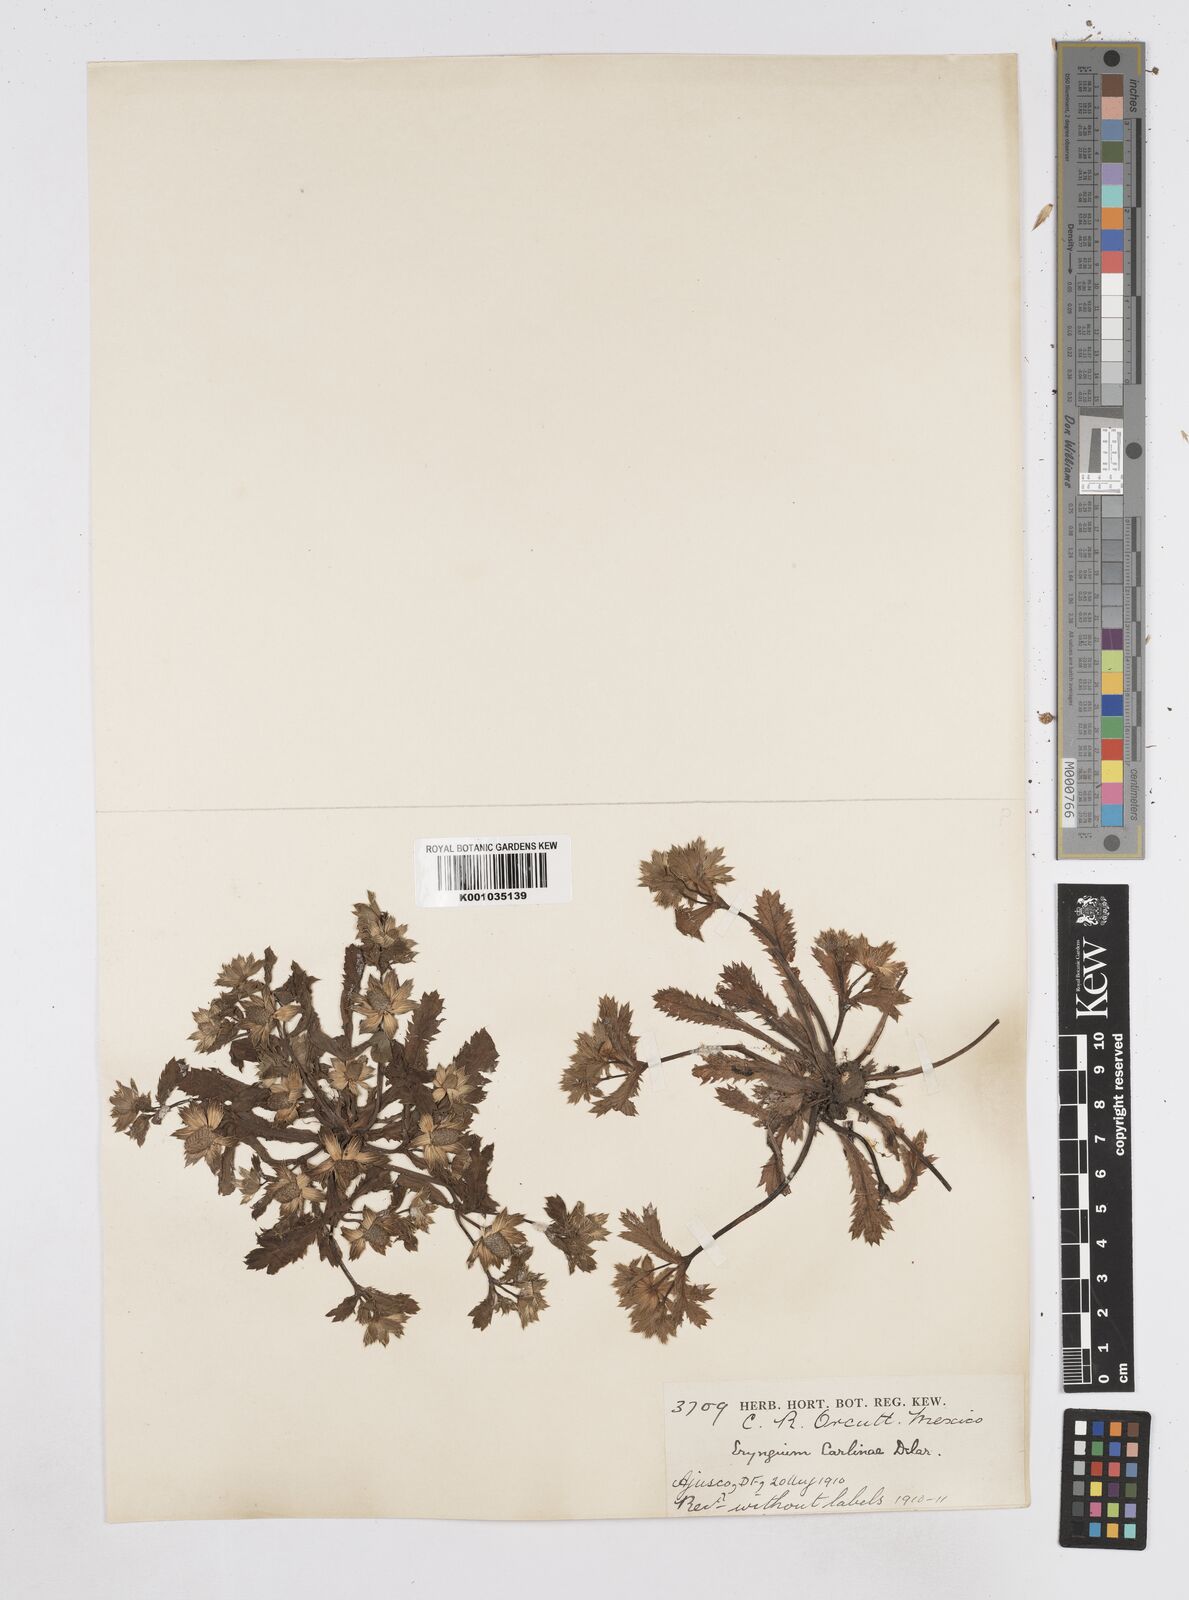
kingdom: Plantae
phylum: Tracheophyta
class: Magnoliopsida
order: Apiales
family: Apiaceae
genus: Eryngium
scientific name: Eryngium carlinae
